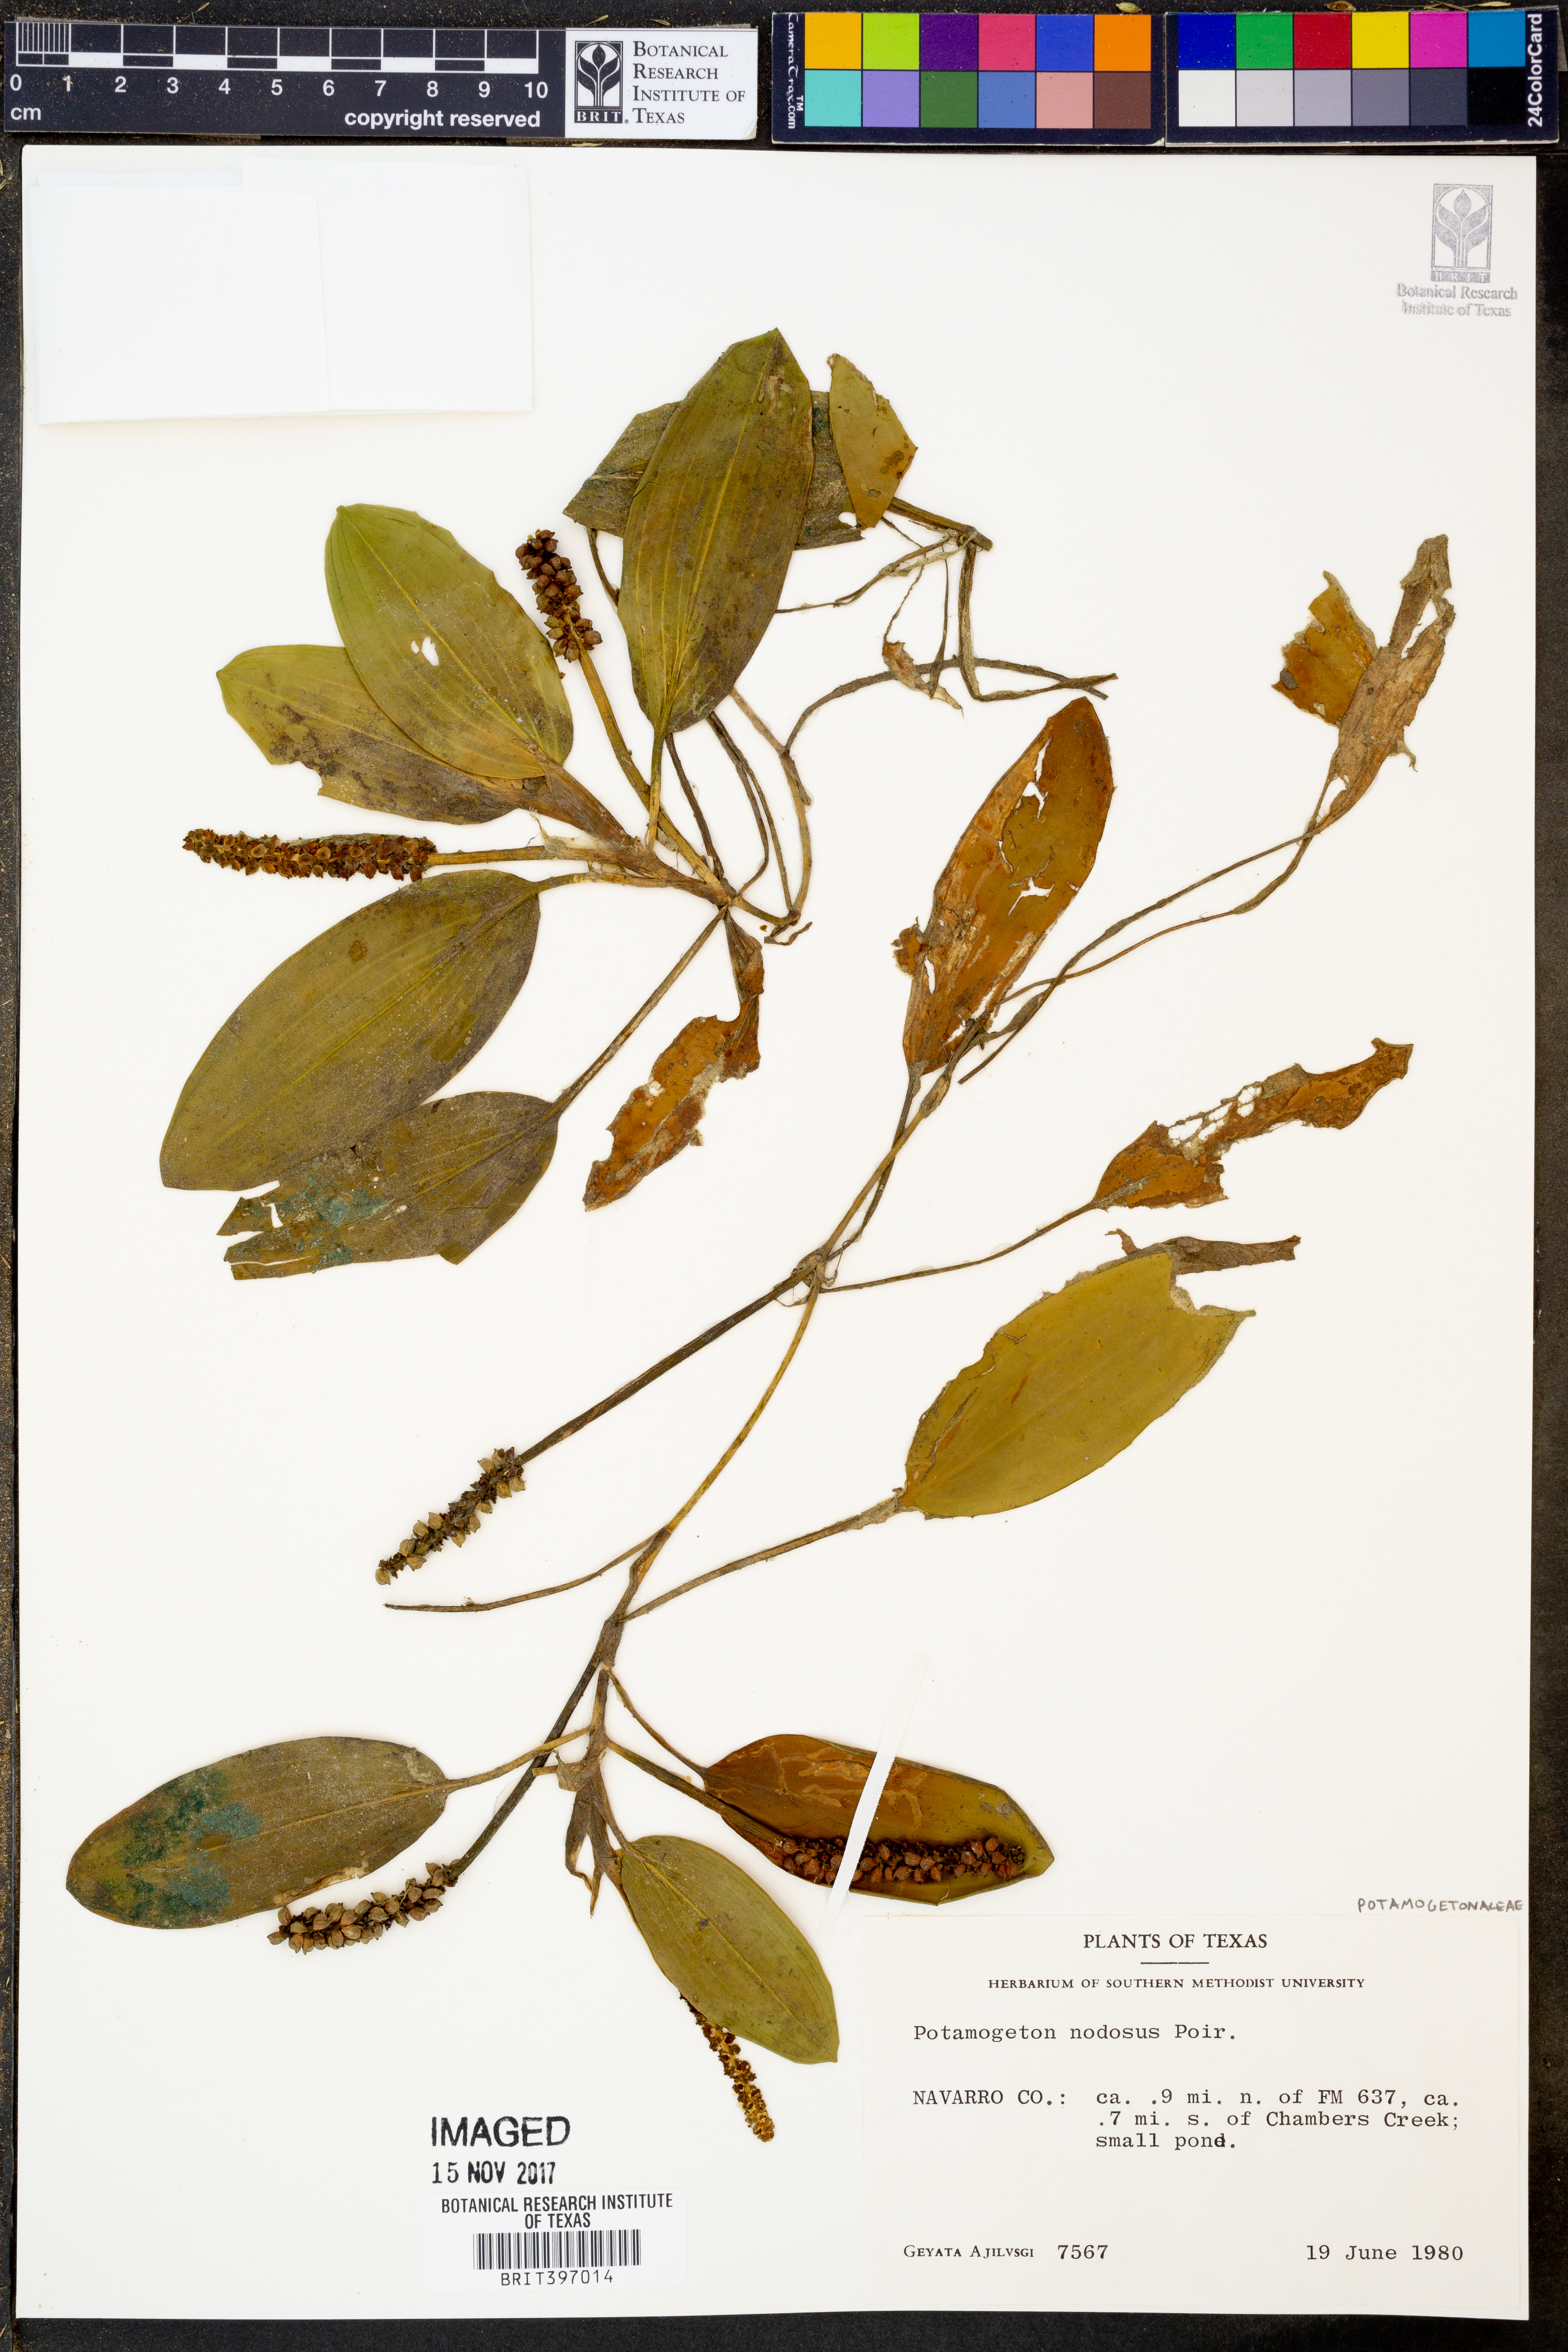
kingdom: Plantae
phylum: Tracheophyta
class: Liliopsida
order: Alismatales
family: Potamogetonaceae
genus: Potamogeton
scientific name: Potamogeton nodosus
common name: Loddon pondweed
